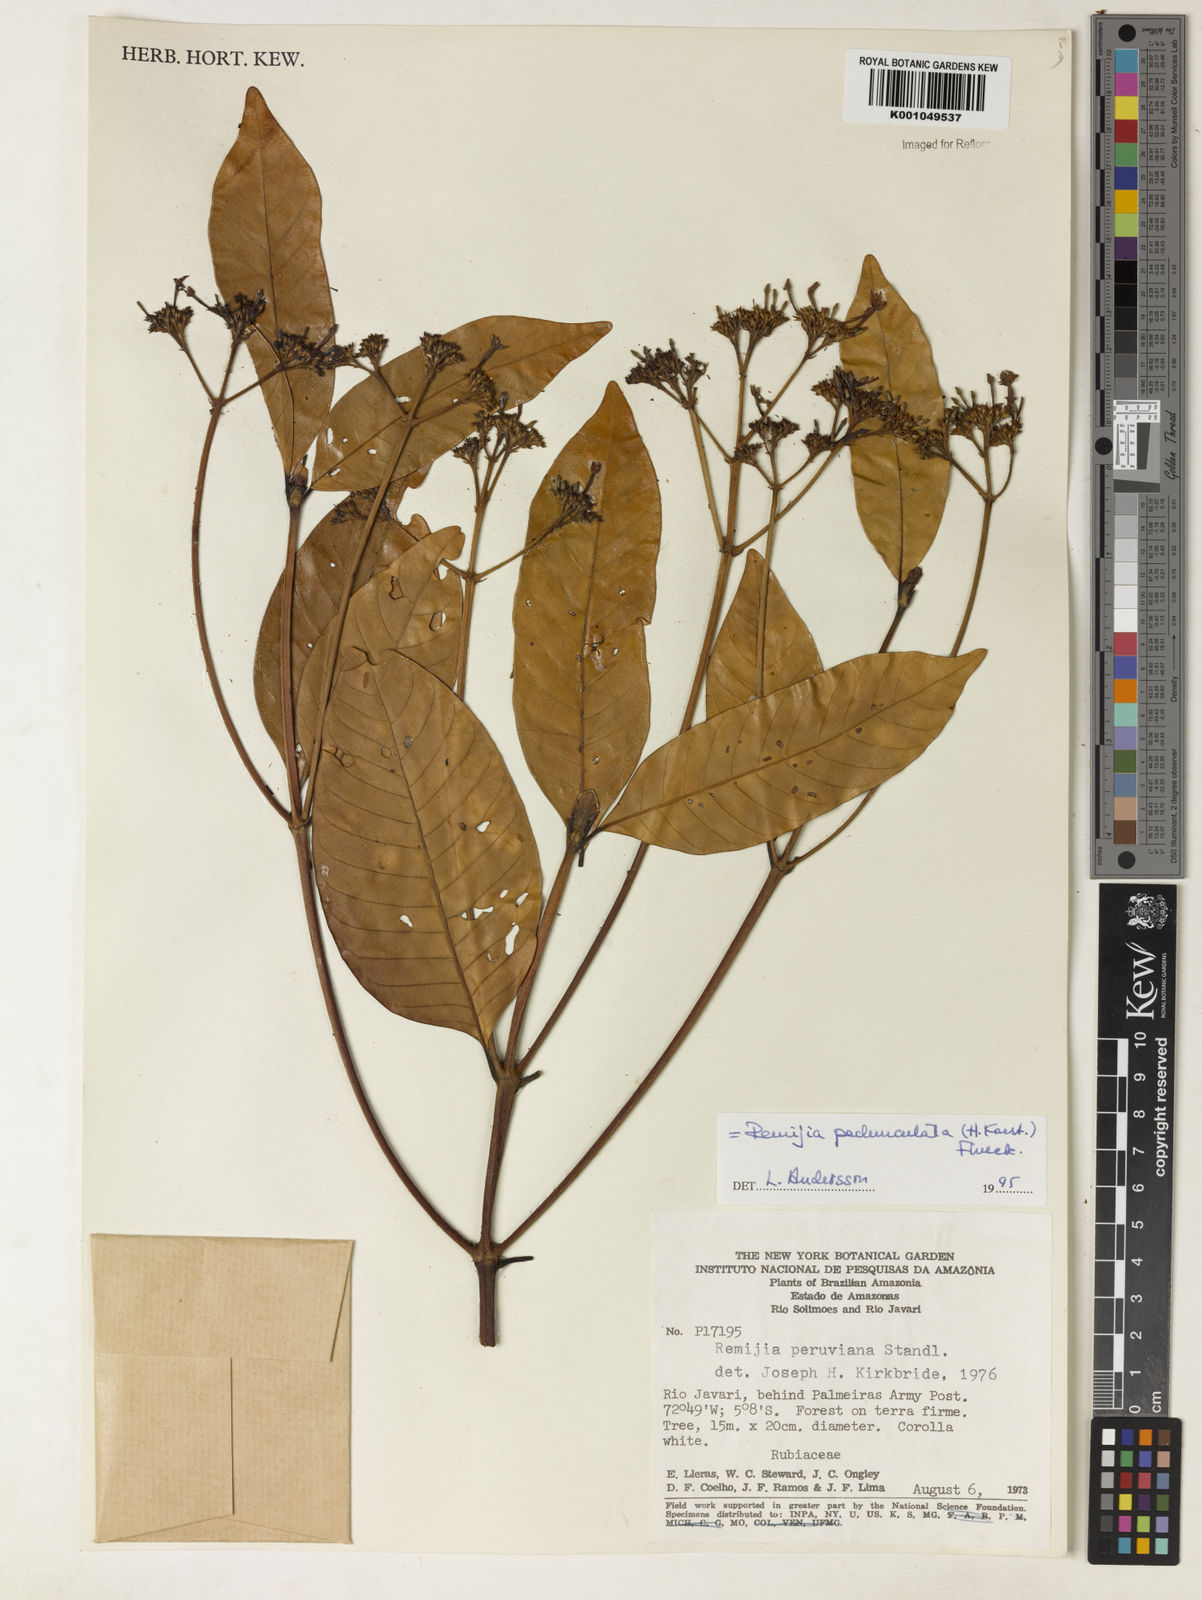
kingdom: Plantae
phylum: Tracheophyta
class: Magnoliopsida
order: Gentianales
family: Rubiaceae
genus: Ciliosemina
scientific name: Ciliosemina pedunculata
